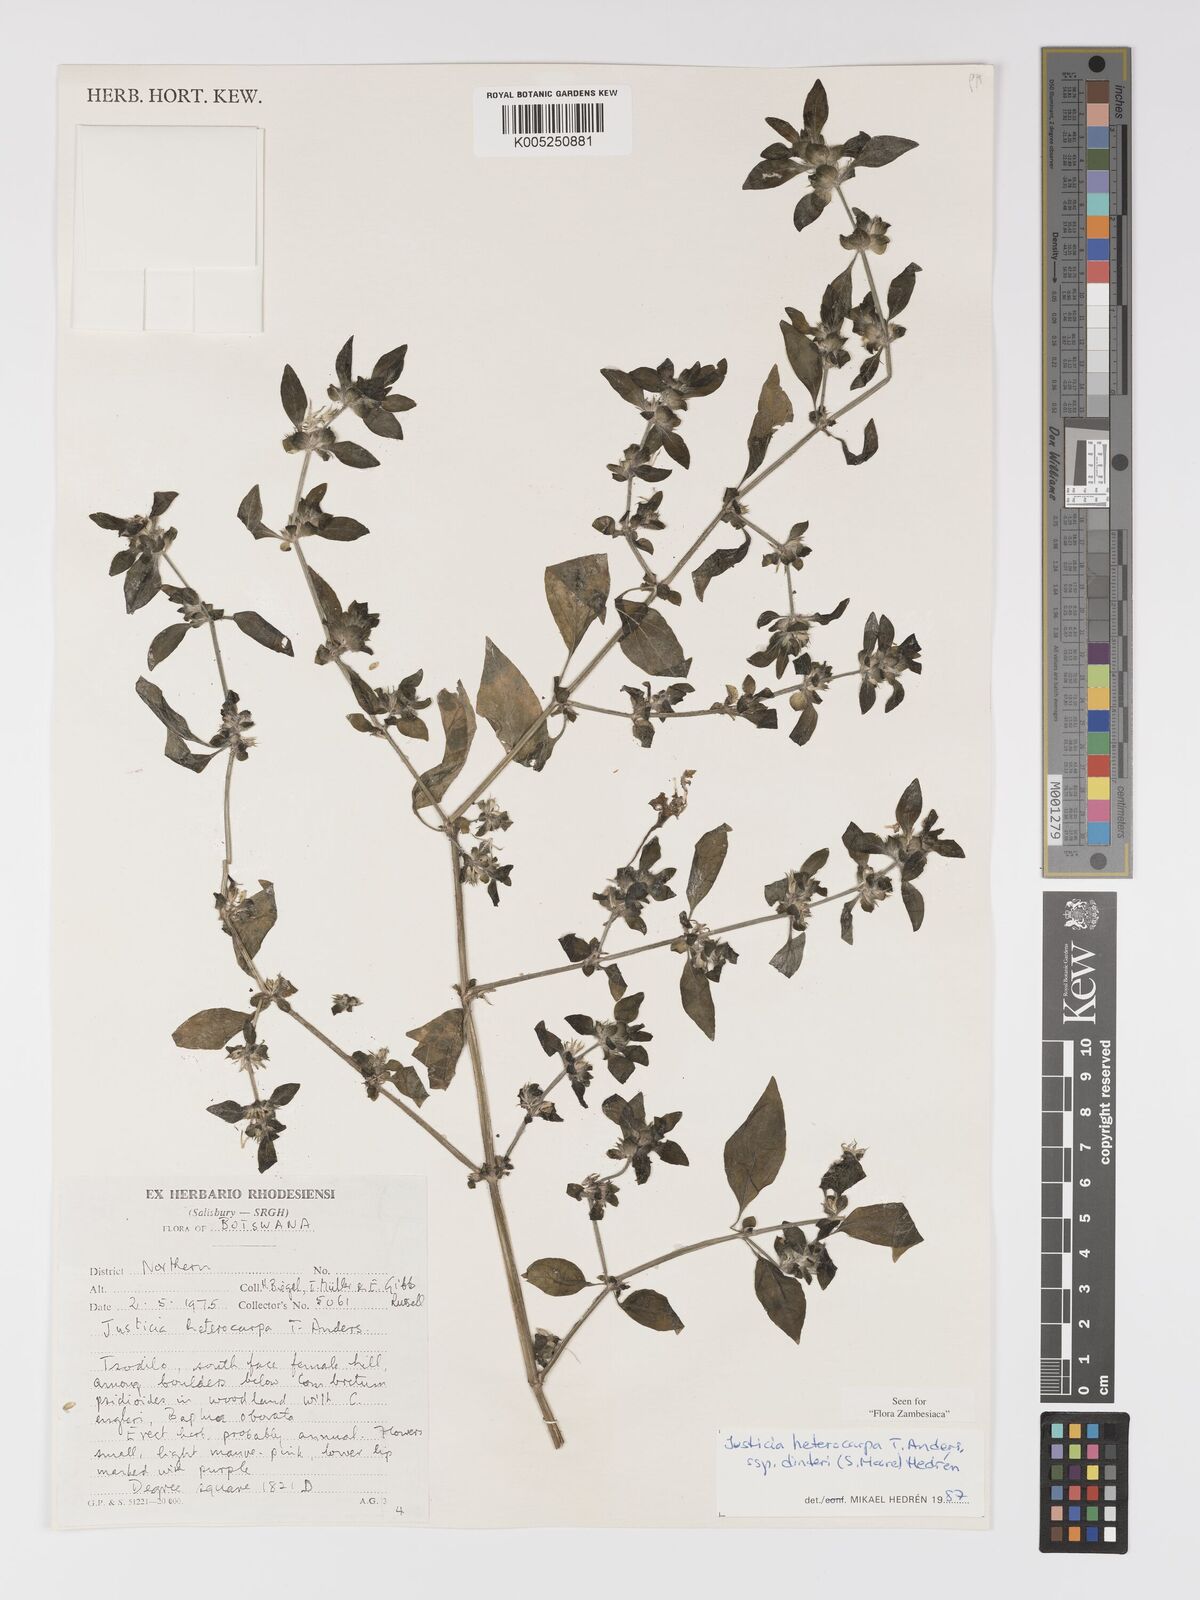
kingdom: Plantae
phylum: Tracheophyta
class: Magnoliopsida
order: Lamiales
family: Acanthaceae
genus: Justicia
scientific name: Justicia heterocarpa
